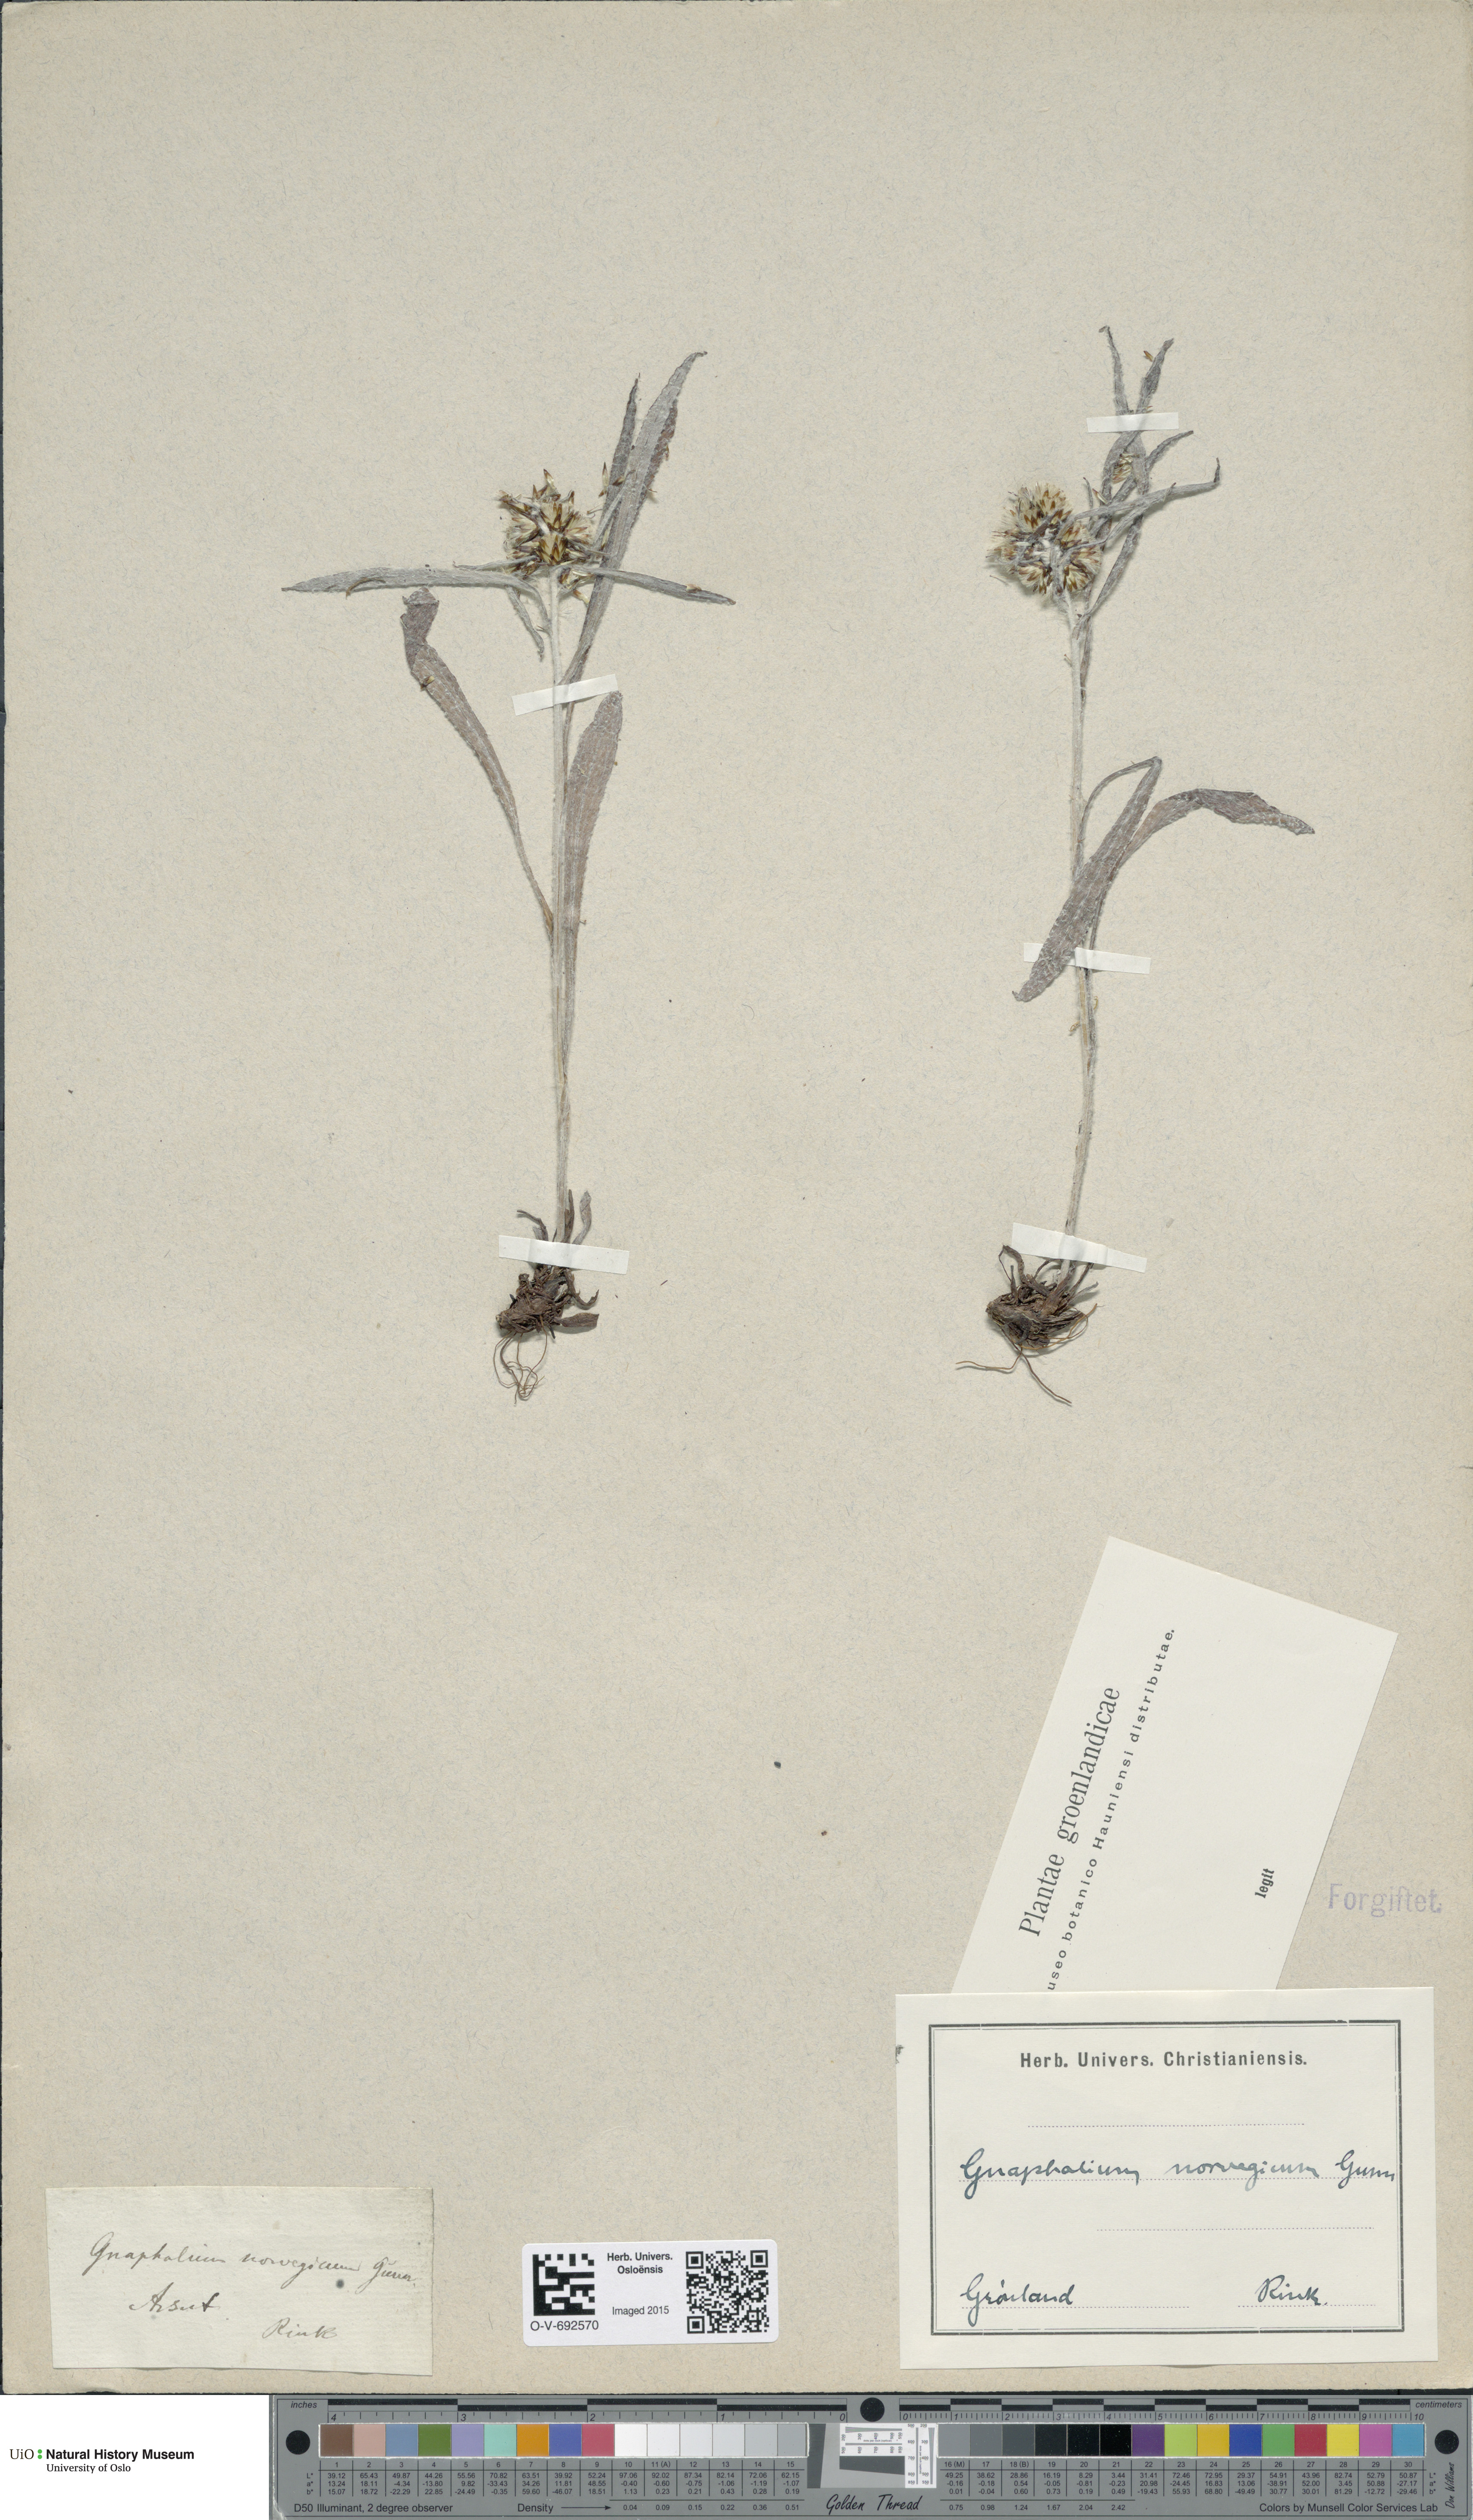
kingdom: Plantae
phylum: Tracheophyta
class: Magnoliopsida
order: Asterales
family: Asteraceae
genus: Omalotheca
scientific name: Omalotheca norvegica
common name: Norwegian arctic-cudweed
